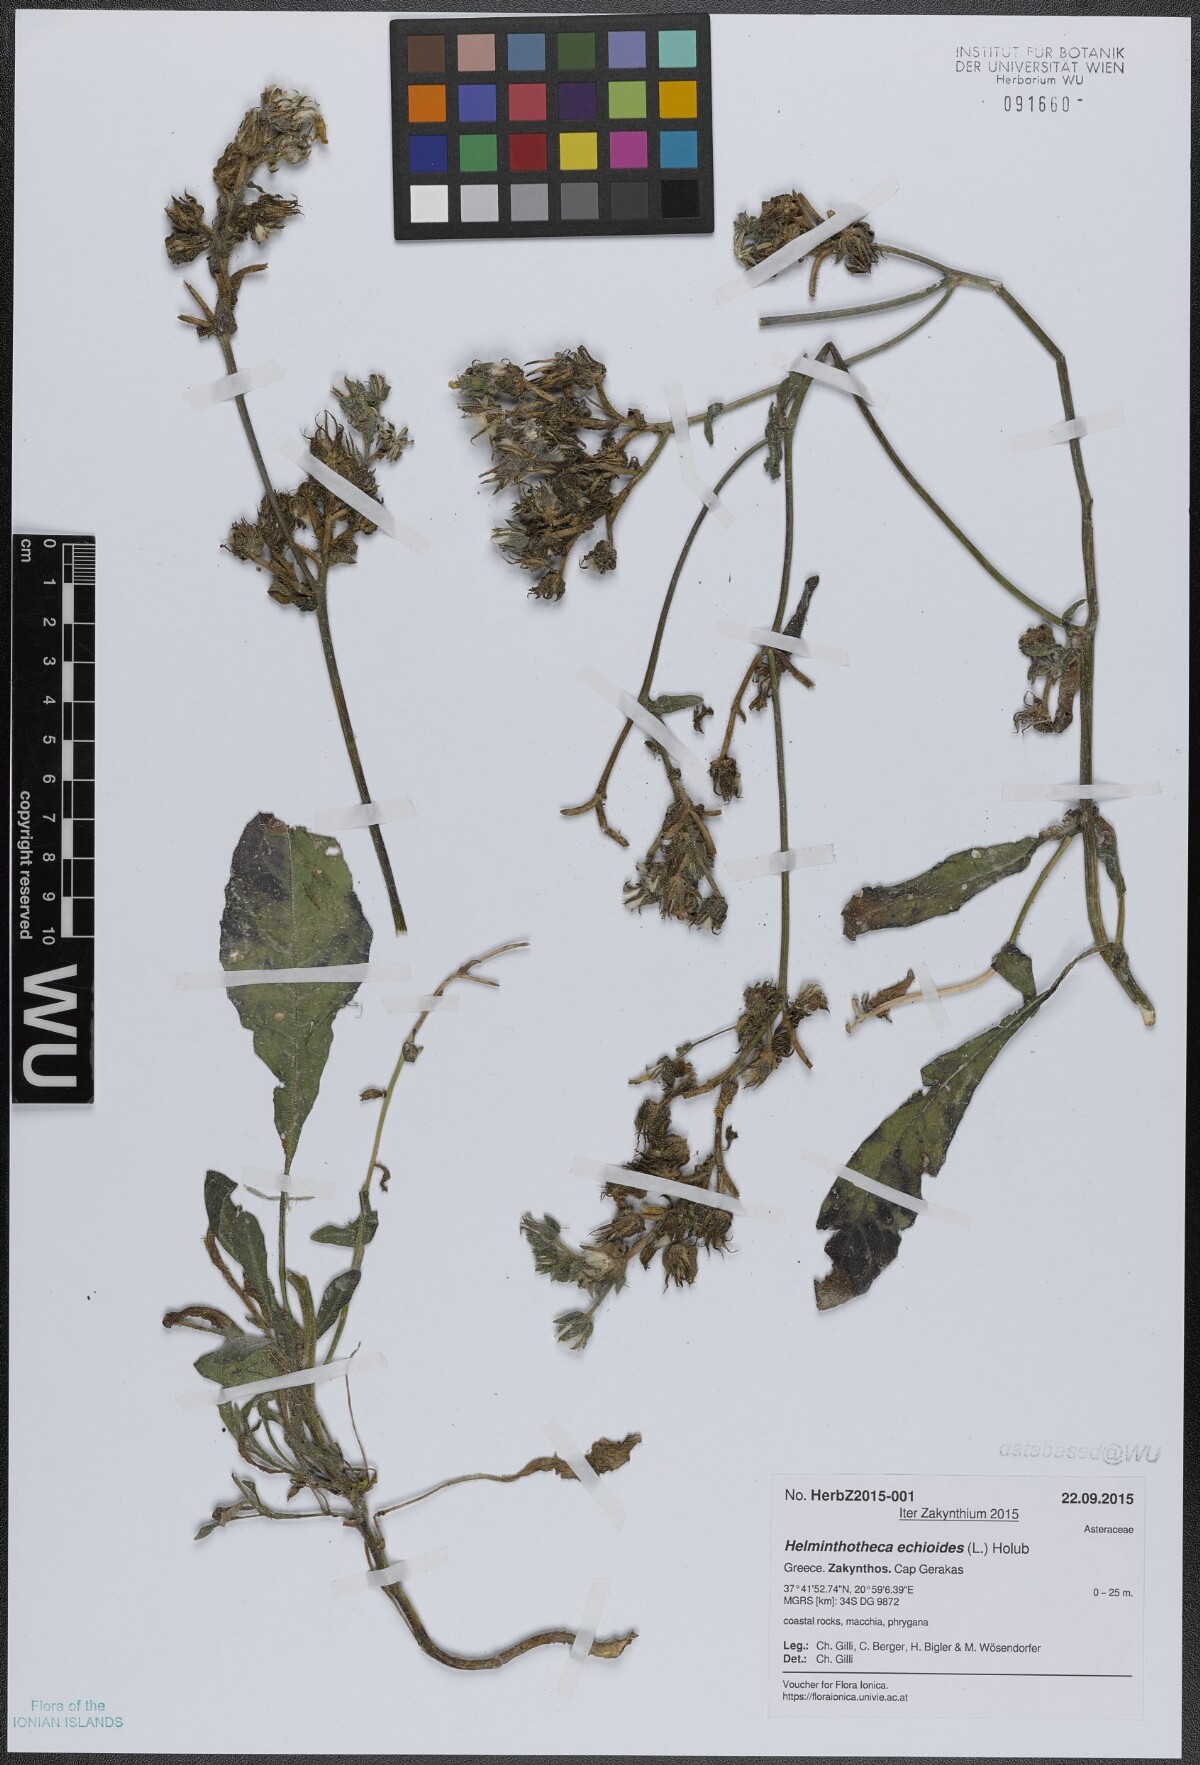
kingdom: Plantae
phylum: Tracheophyta
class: Magnoliopsida
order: Asterales
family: Asteraceae
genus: Helminthotheca
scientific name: Helminthotheca echioides
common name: Ox-tongue
